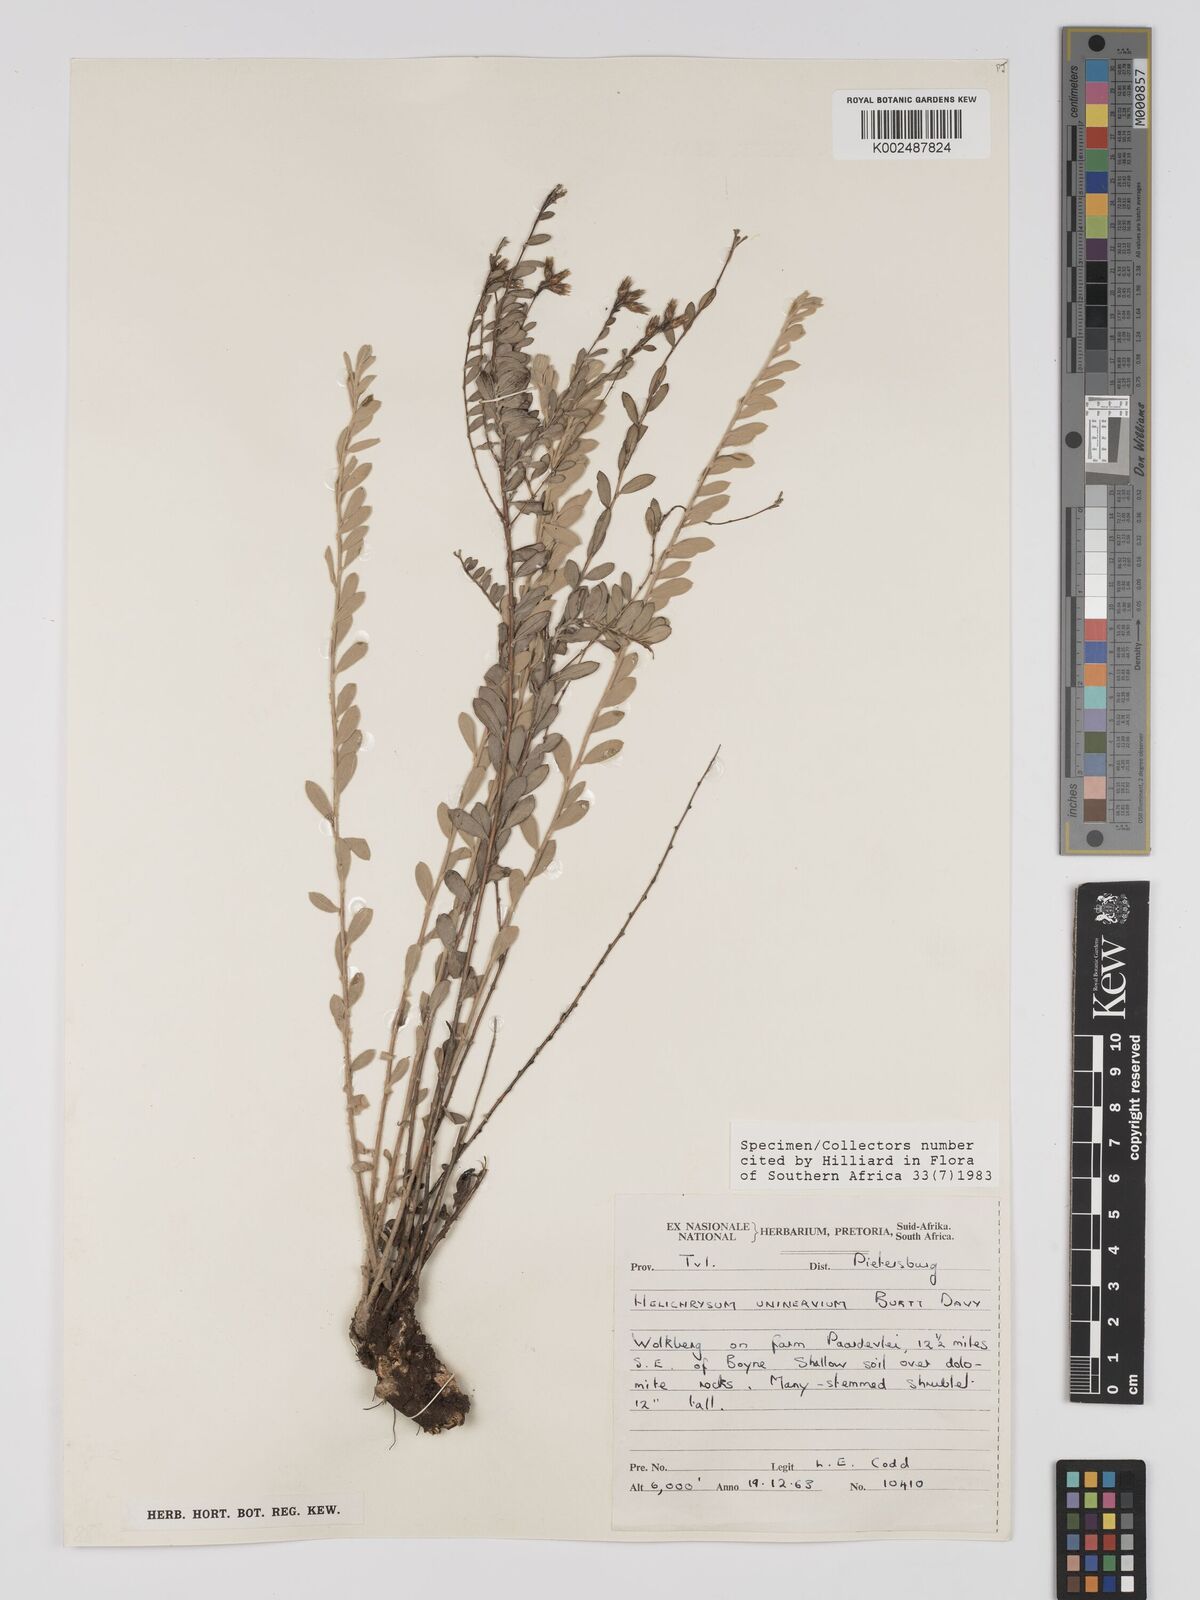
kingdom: Plantae
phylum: Tracheophyta
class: Magnoliopsida
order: Asterales
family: Asteraceae
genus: Helichrysum
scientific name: Helichrysum uninervium
